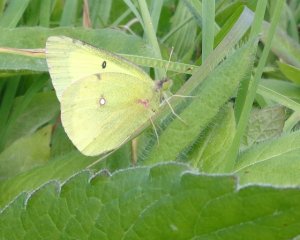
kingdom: Animalia
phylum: Arthropoda
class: Insecta
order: Lepidoptera
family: Pieridae
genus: Colias
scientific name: Colias philodice
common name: Clouded Sulphur
